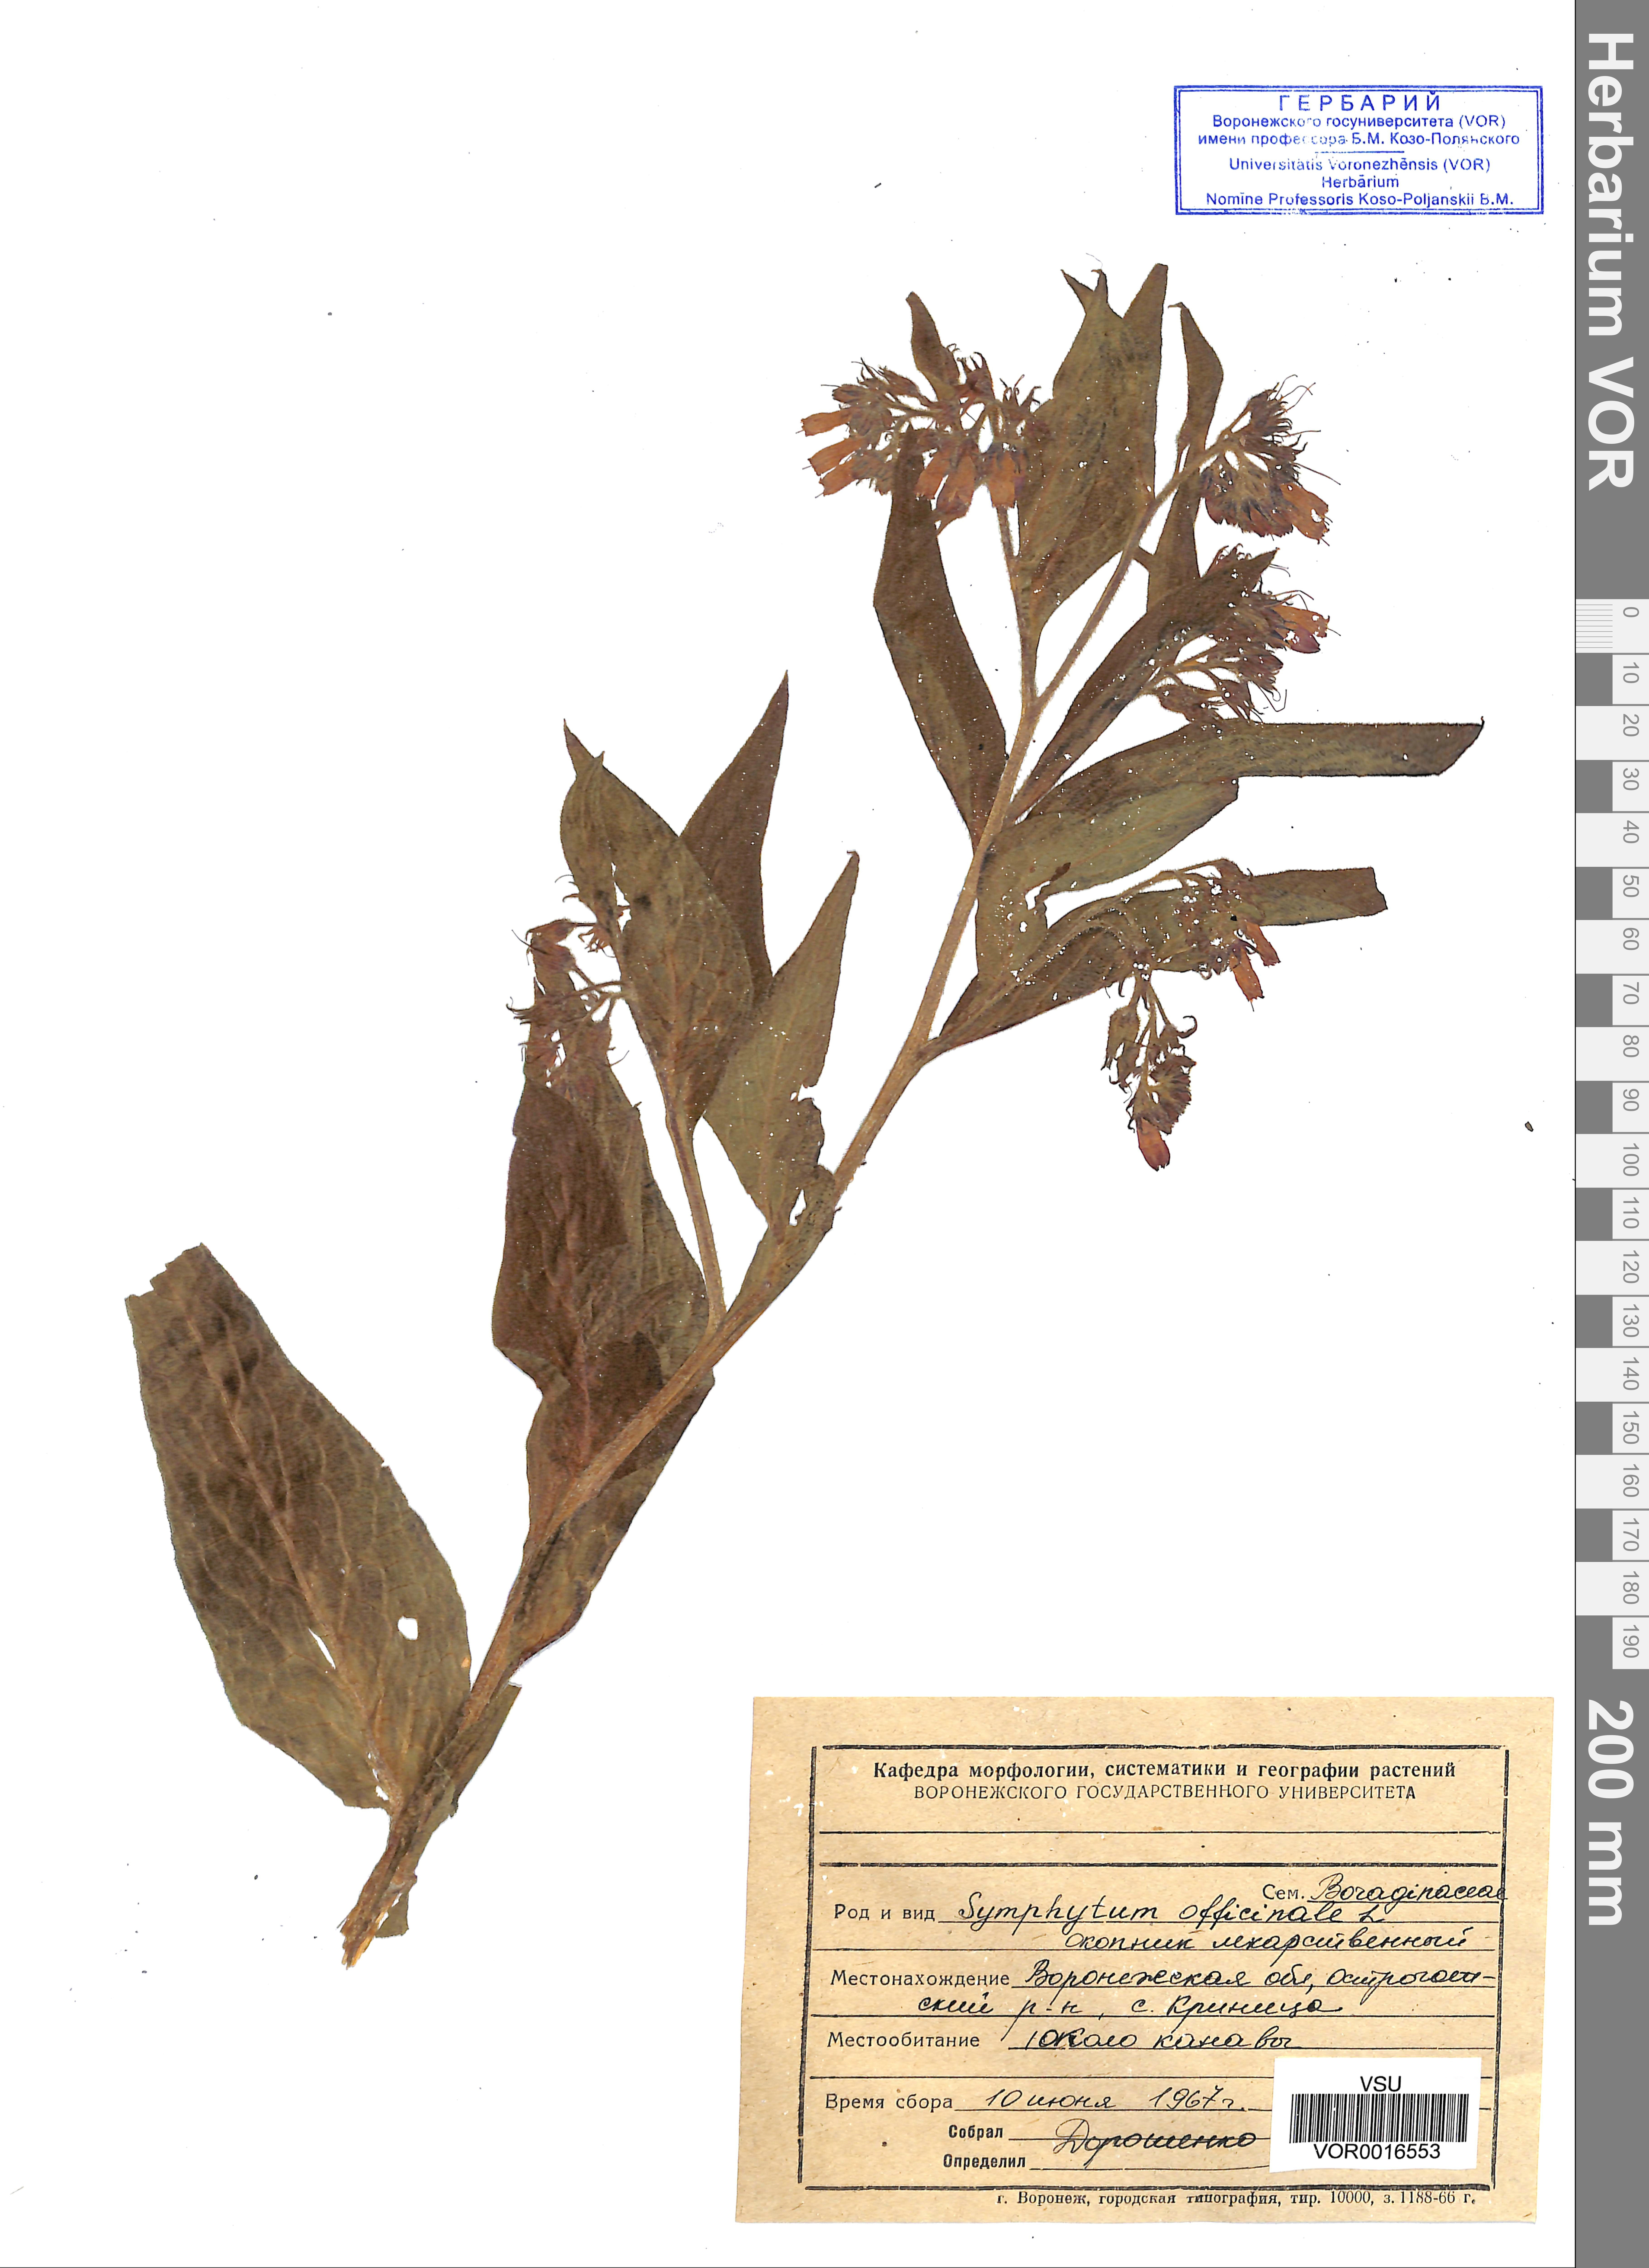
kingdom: Plantae
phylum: Tracheophyta
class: Magnoliopsida
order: Boraginales
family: Boraginaceae
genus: Symphytum
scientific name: Symphytum officinale
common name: Common comfrey
